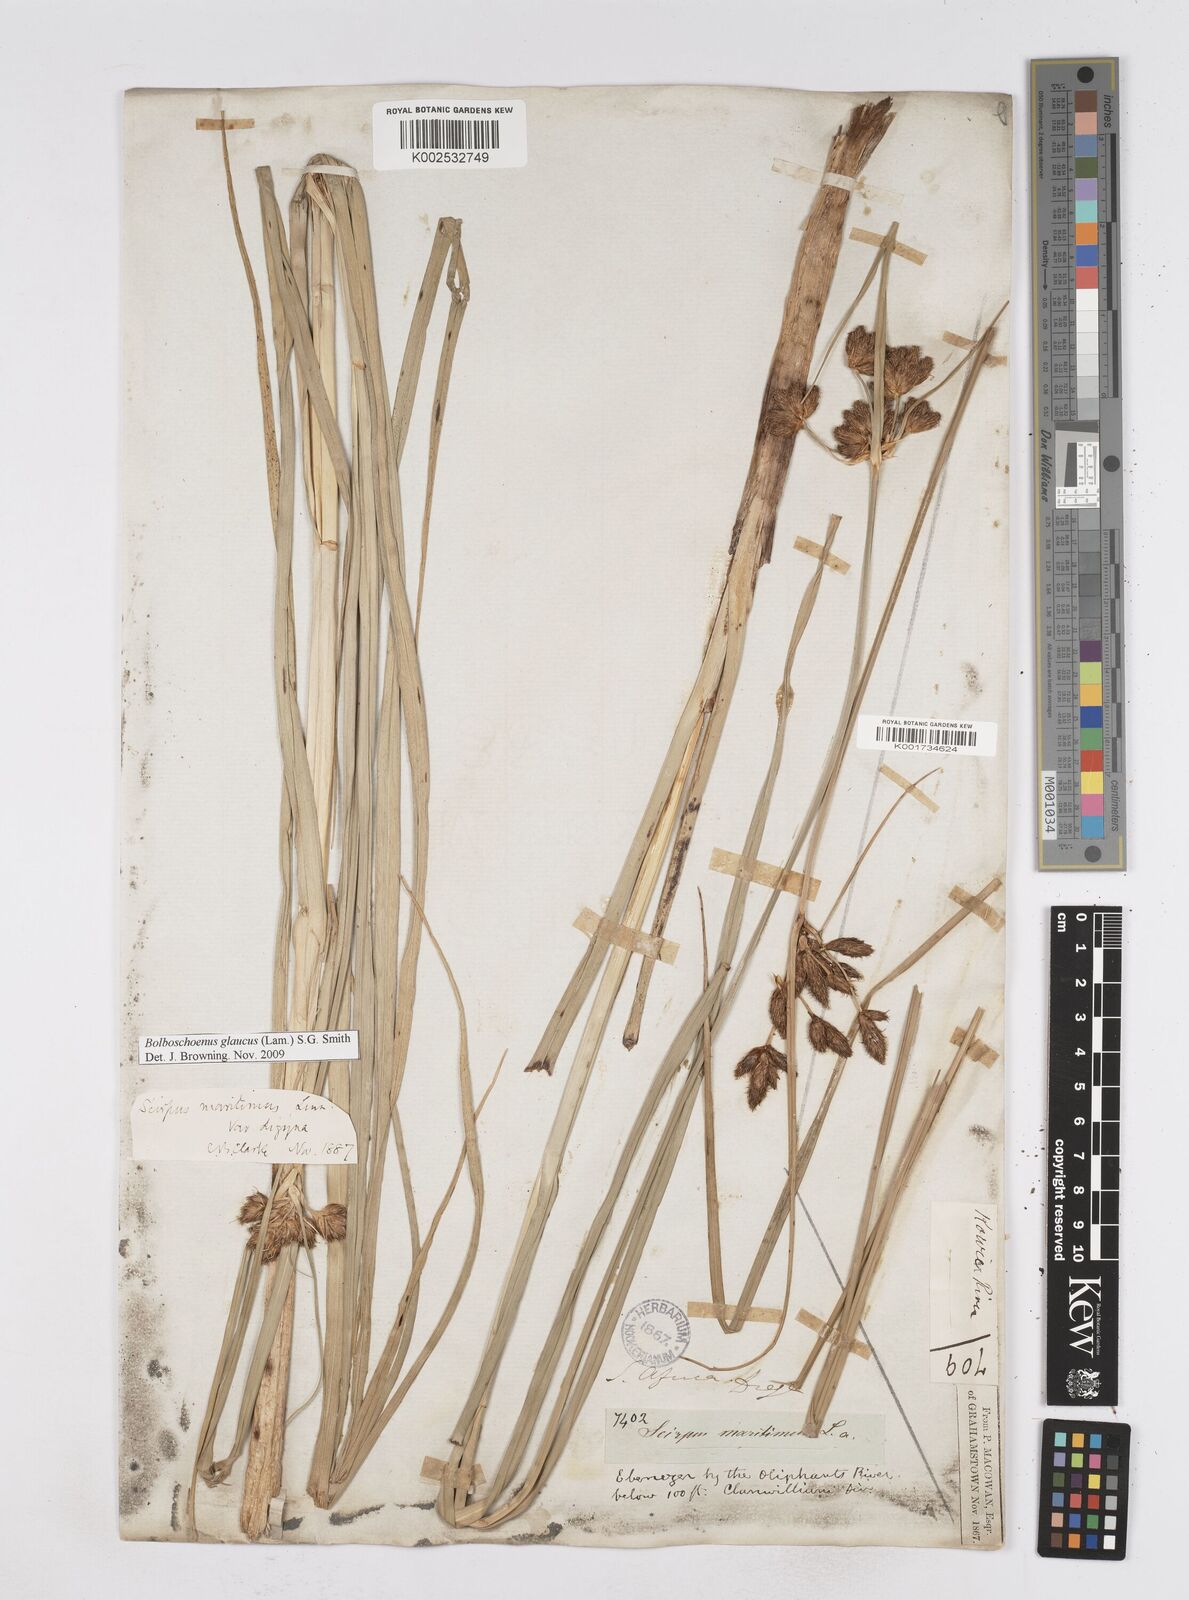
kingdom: Plantae
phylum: Tracheophyta
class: Liliopsida
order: Poales
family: Cyperaceae
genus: Bolboschoenus
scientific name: Bolboschoenus maritimus
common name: Sea club-rush
